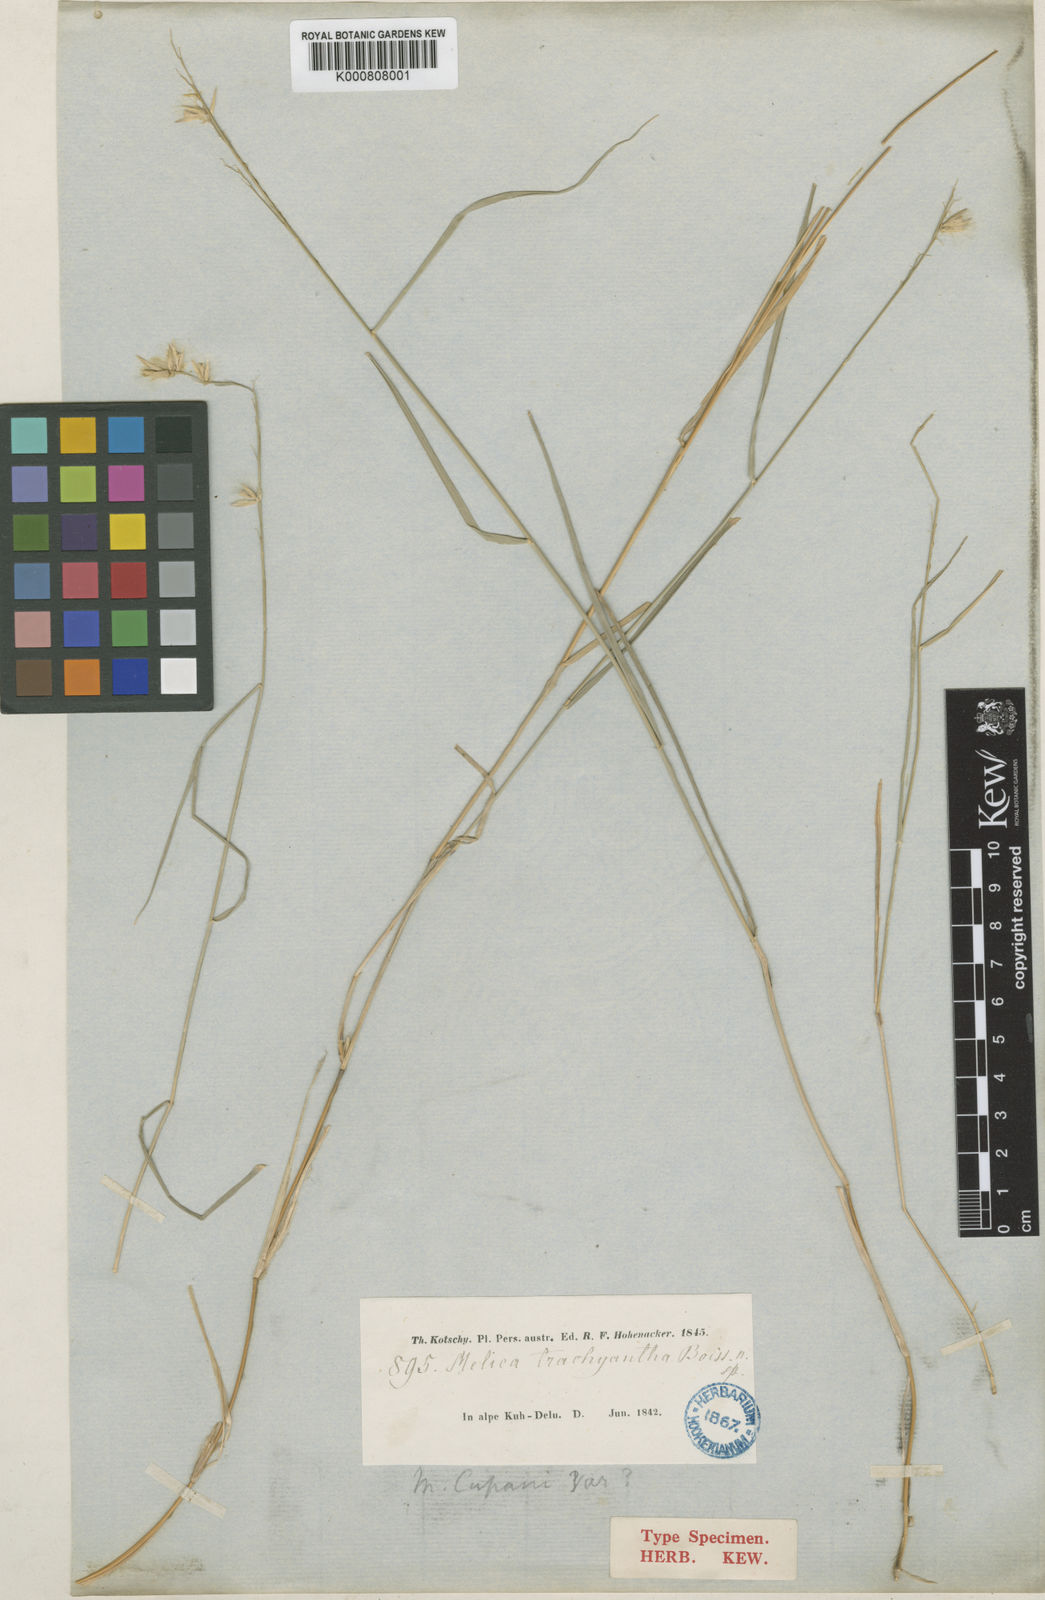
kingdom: Plantae
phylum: Tracheophyta
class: Liliopsida
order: Poales
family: Poaceae
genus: Melica
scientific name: Melica persica
